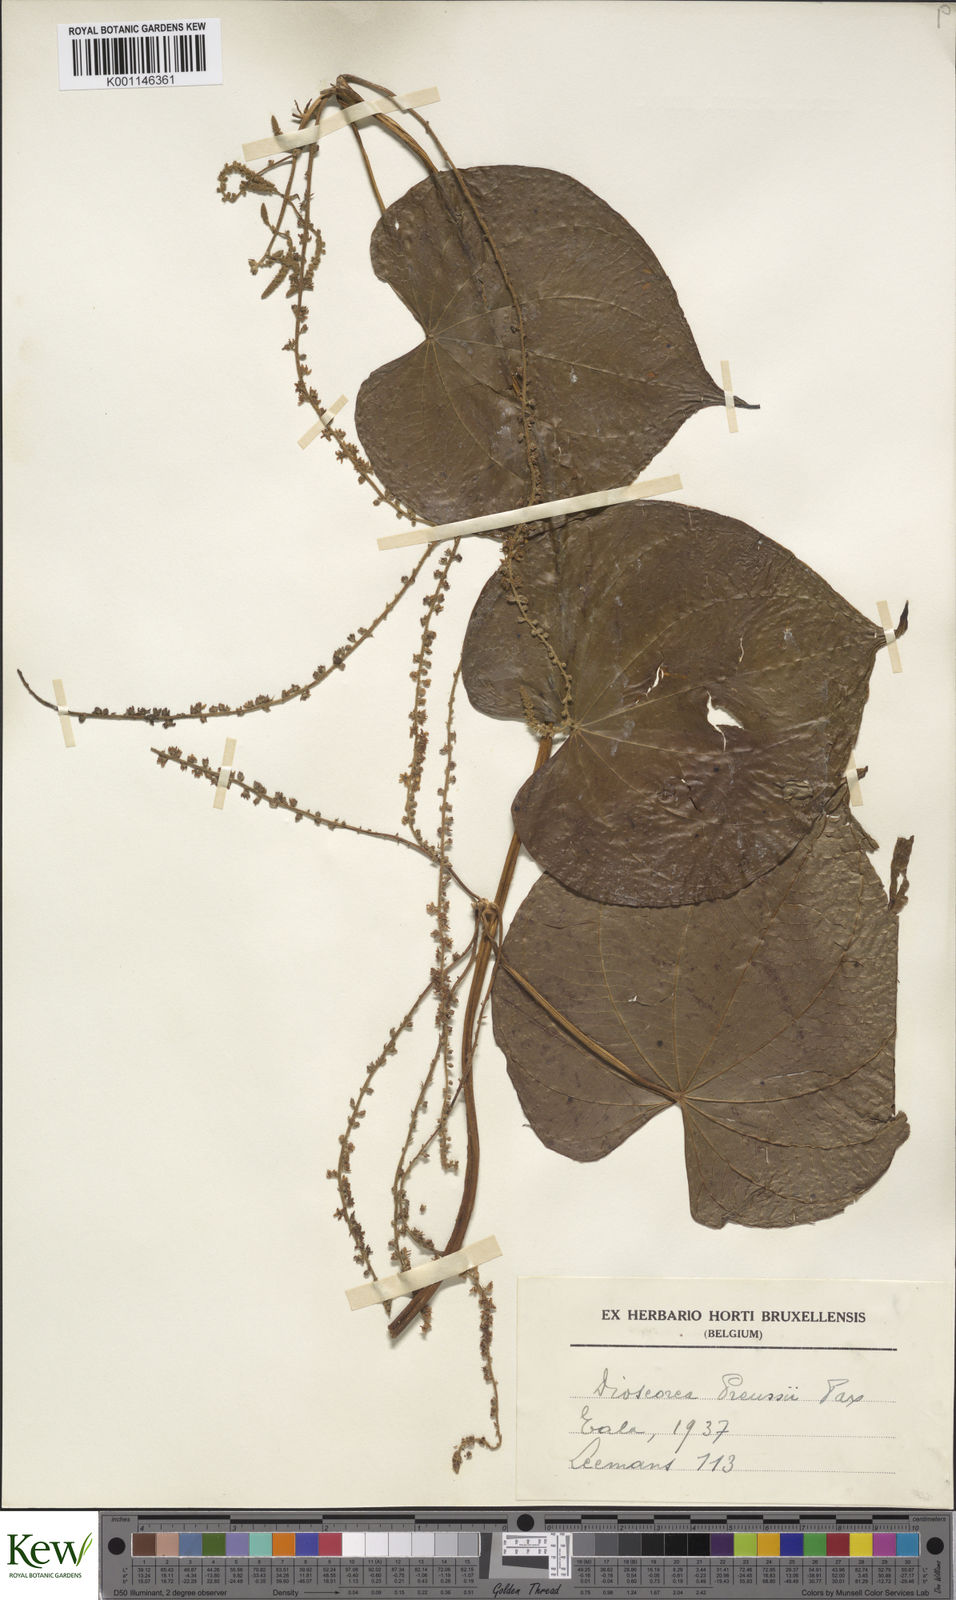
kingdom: Plantae
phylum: Tracheophyta
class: Liliopsida
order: Dioscoreales
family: Dioscoreaceae
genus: Dioscorea
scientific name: Dioscorea preussii
